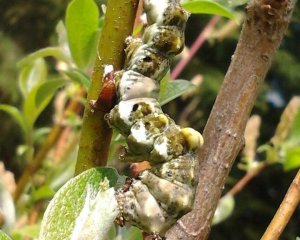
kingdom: Animalia
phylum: Arthropoda
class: Insecta
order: Lepidoptera
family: Nymphalidae
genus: Limenitis
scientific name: Limenitis archippus
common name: Viceroy
